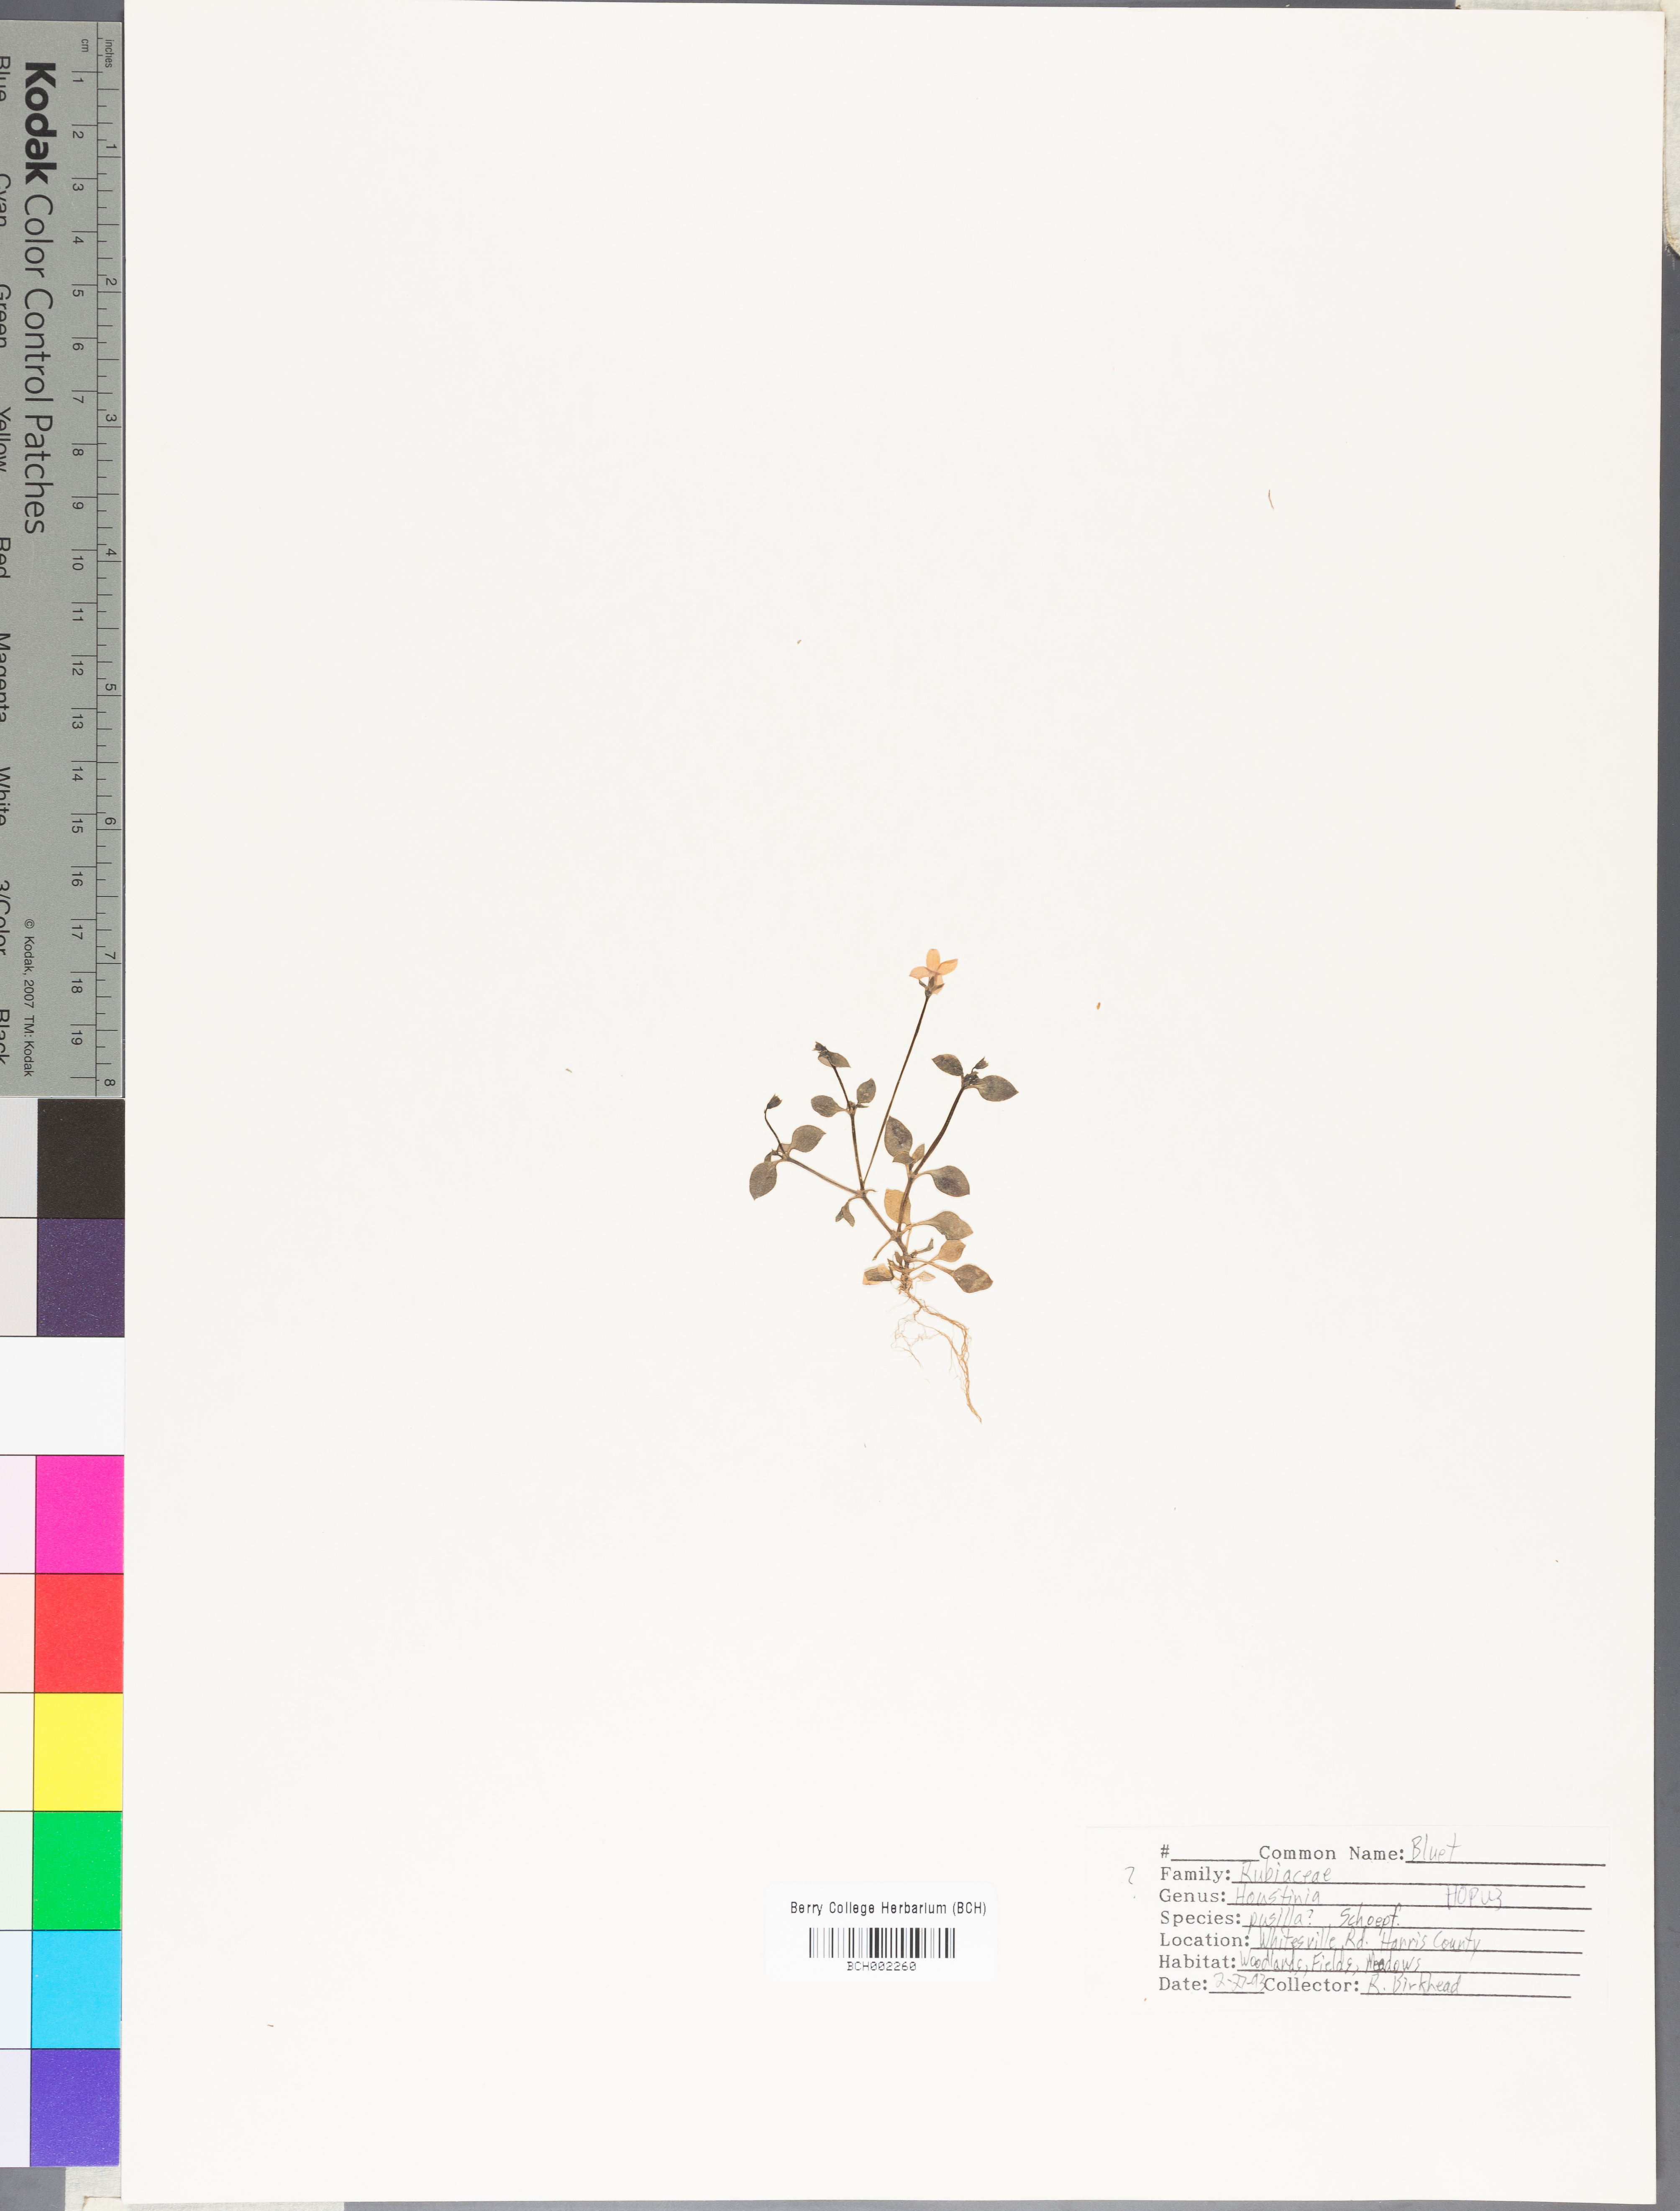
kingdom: Plantae
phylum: Tracheophyta
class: Magnoliopsida
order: Gentianales
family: Rubiaceae
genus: Houstonia
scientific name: Houstonia pusilla
